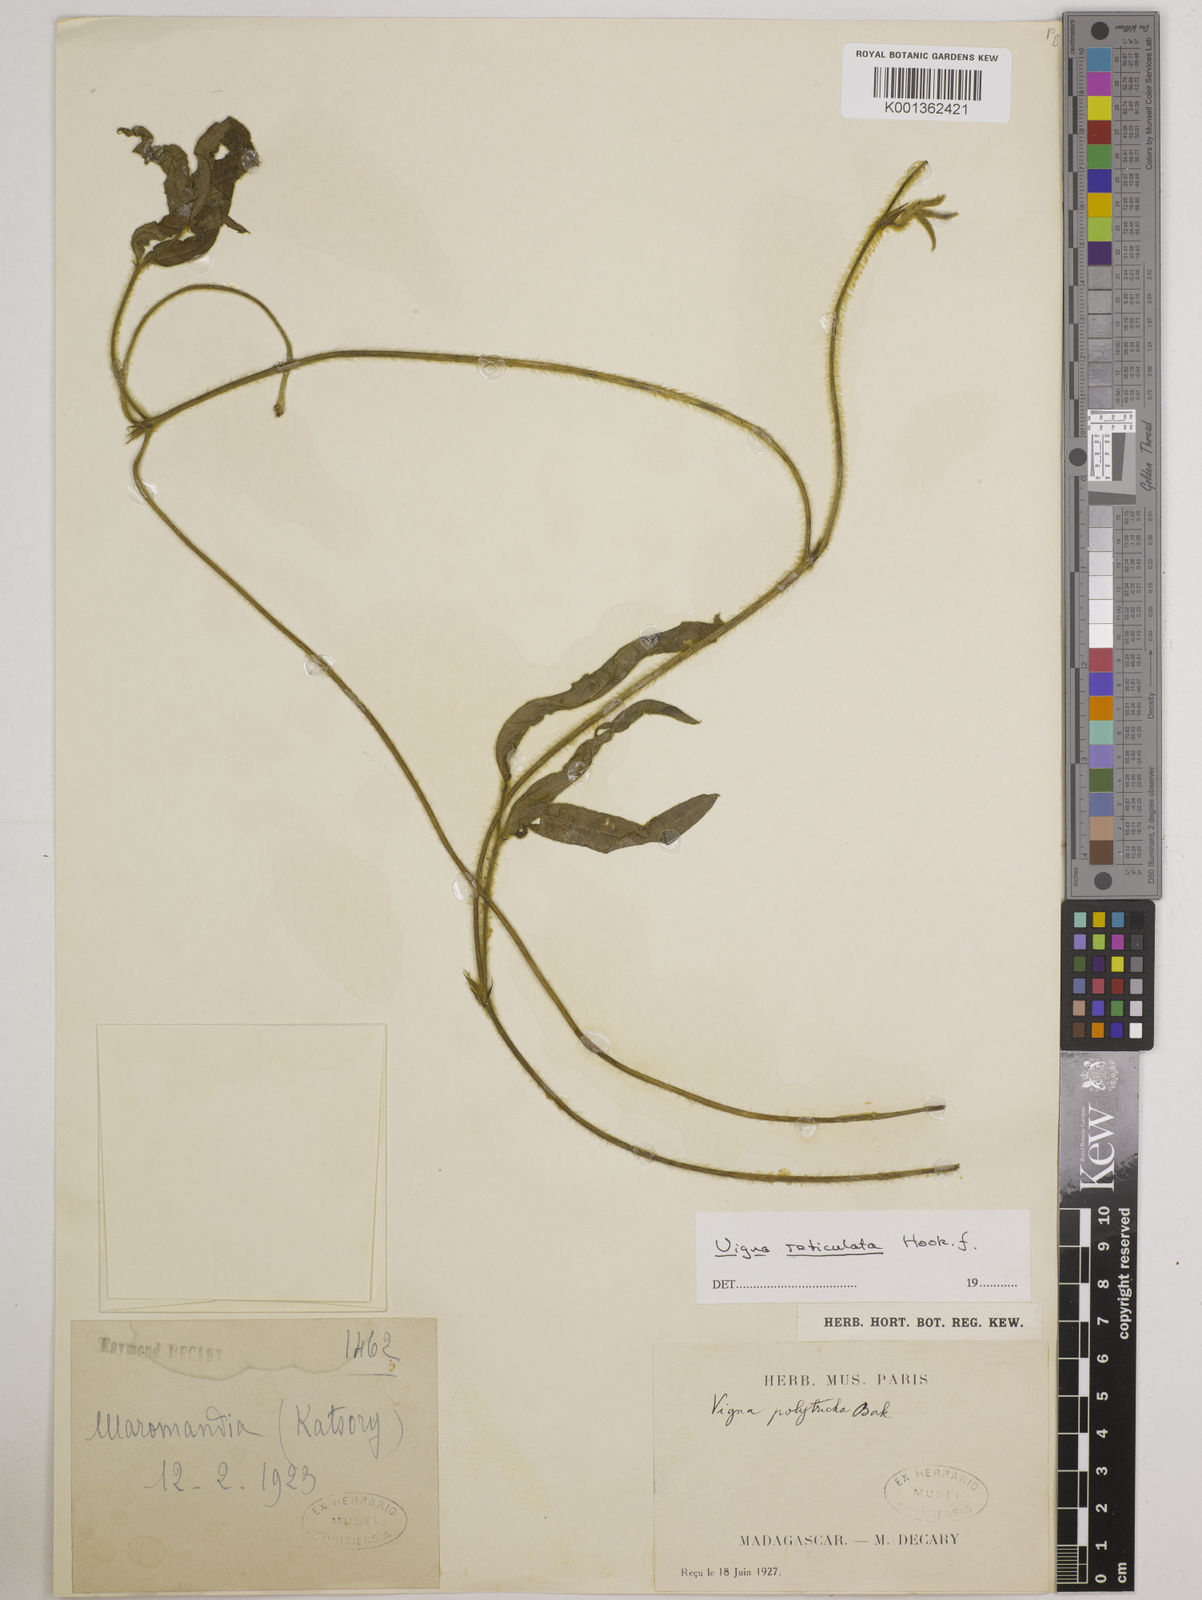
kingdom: Plantae
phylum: Tracheophyta
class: Magnoliopsida
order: Fabales
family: Fabaceae
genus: Vigna
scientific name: Vigna reticulata
